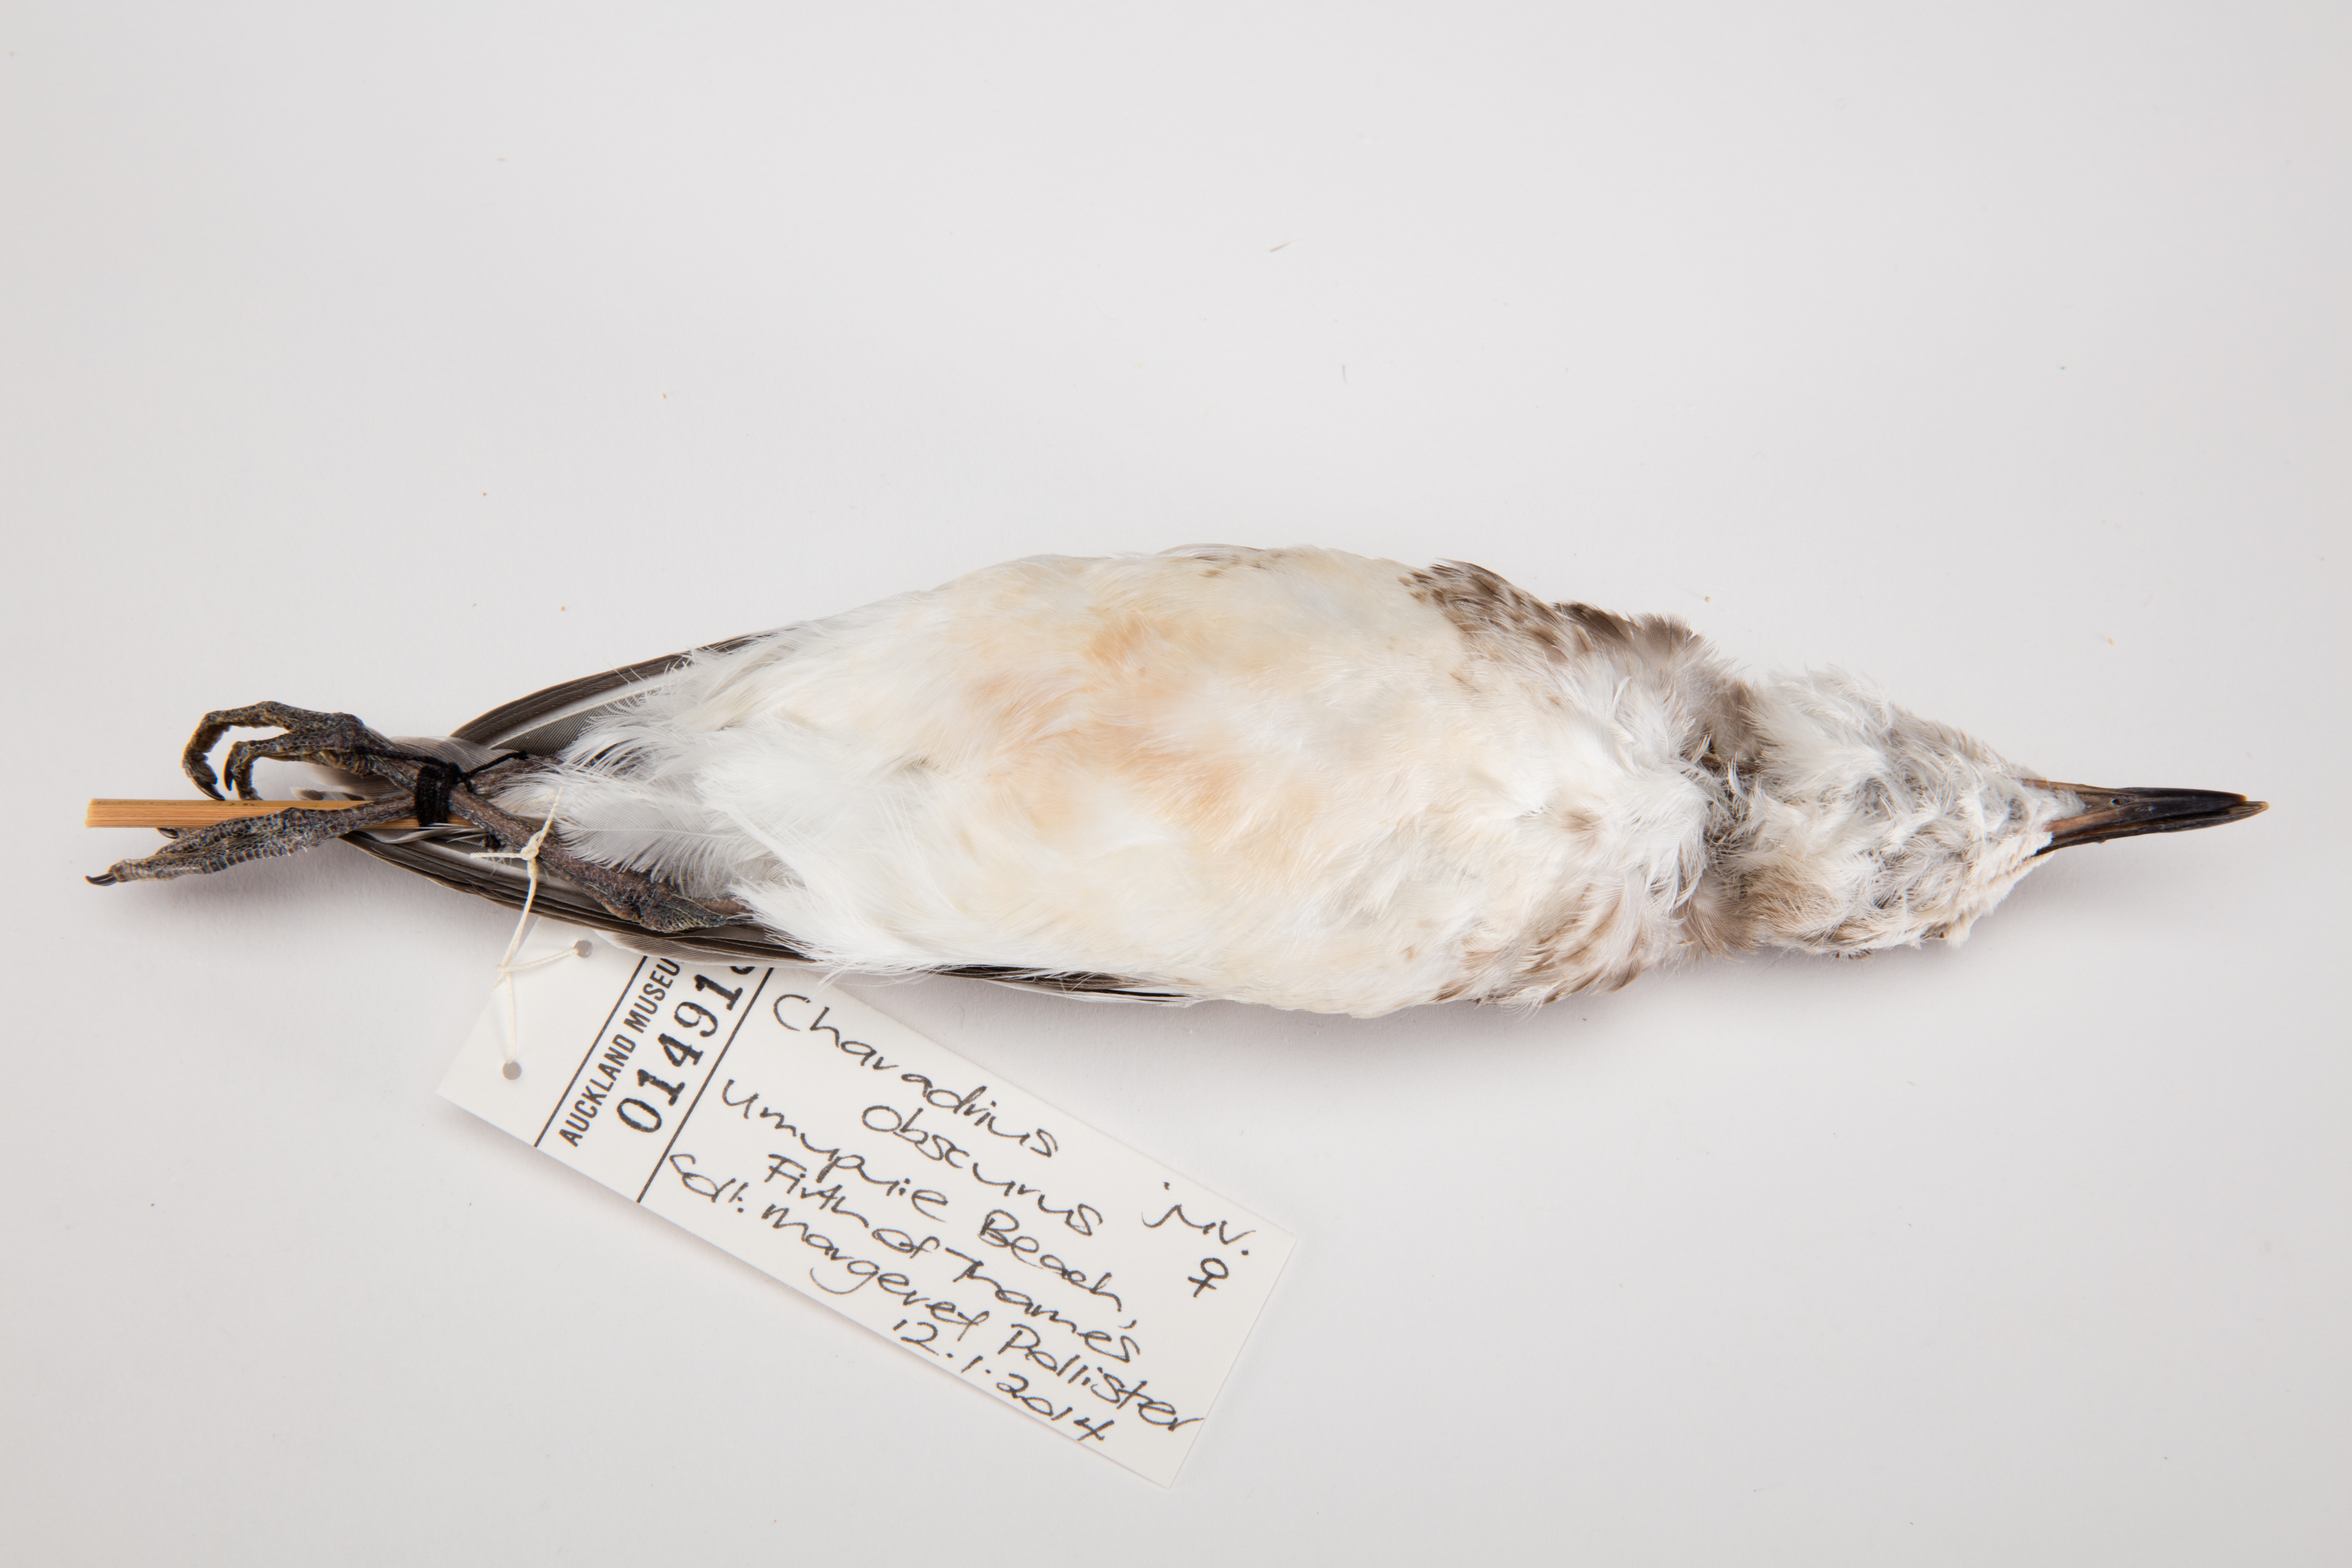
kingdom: Animalia
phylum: Chordata
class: Aves
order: Charadriiformes
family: Charadriidae
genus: Charadrius
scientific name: Charadrius obscurus
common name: New zealand plover
